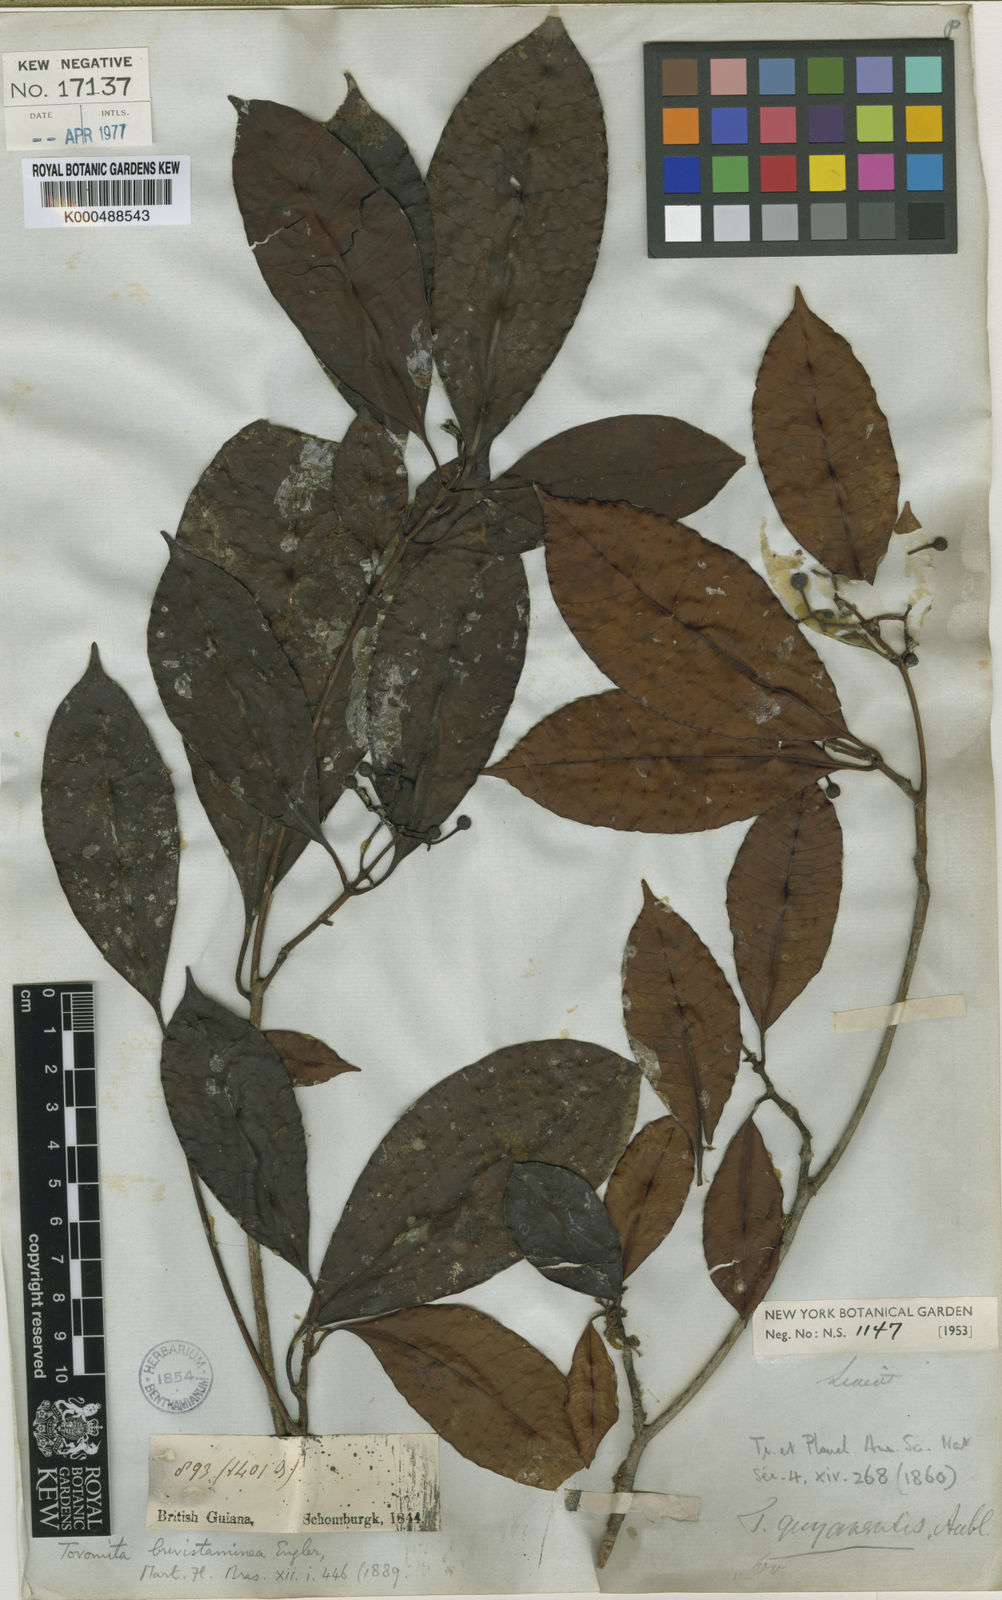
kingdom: Plantae
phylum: Tracheophyta
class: Magnoliopsida
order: Malpighiales
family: Clusiaceae
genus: Tovomita
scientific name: Tovomita brevistaminea
